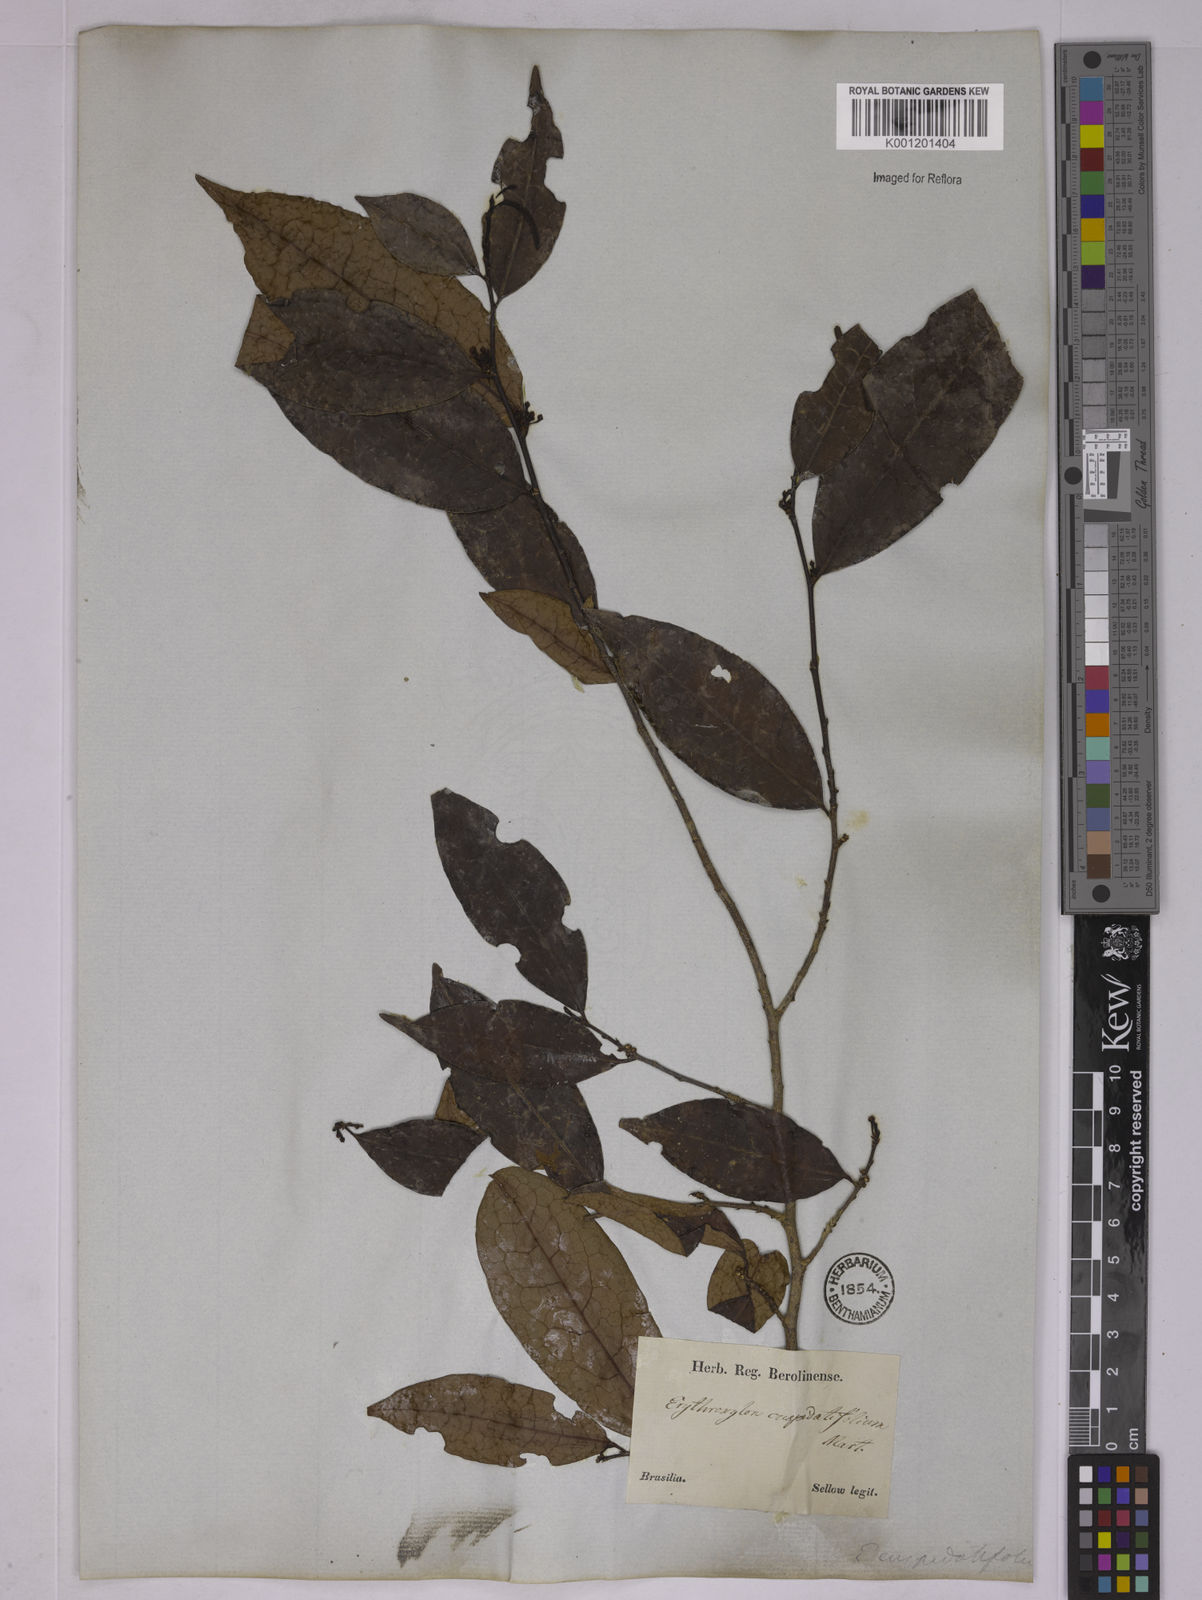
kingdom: Plantae
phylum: Tracheophyta
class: Magnoliopsida
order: Malpighiales
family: Erythroxylaceae
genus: Erythroxylum
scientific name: Erythroxylum cuspidifolium
